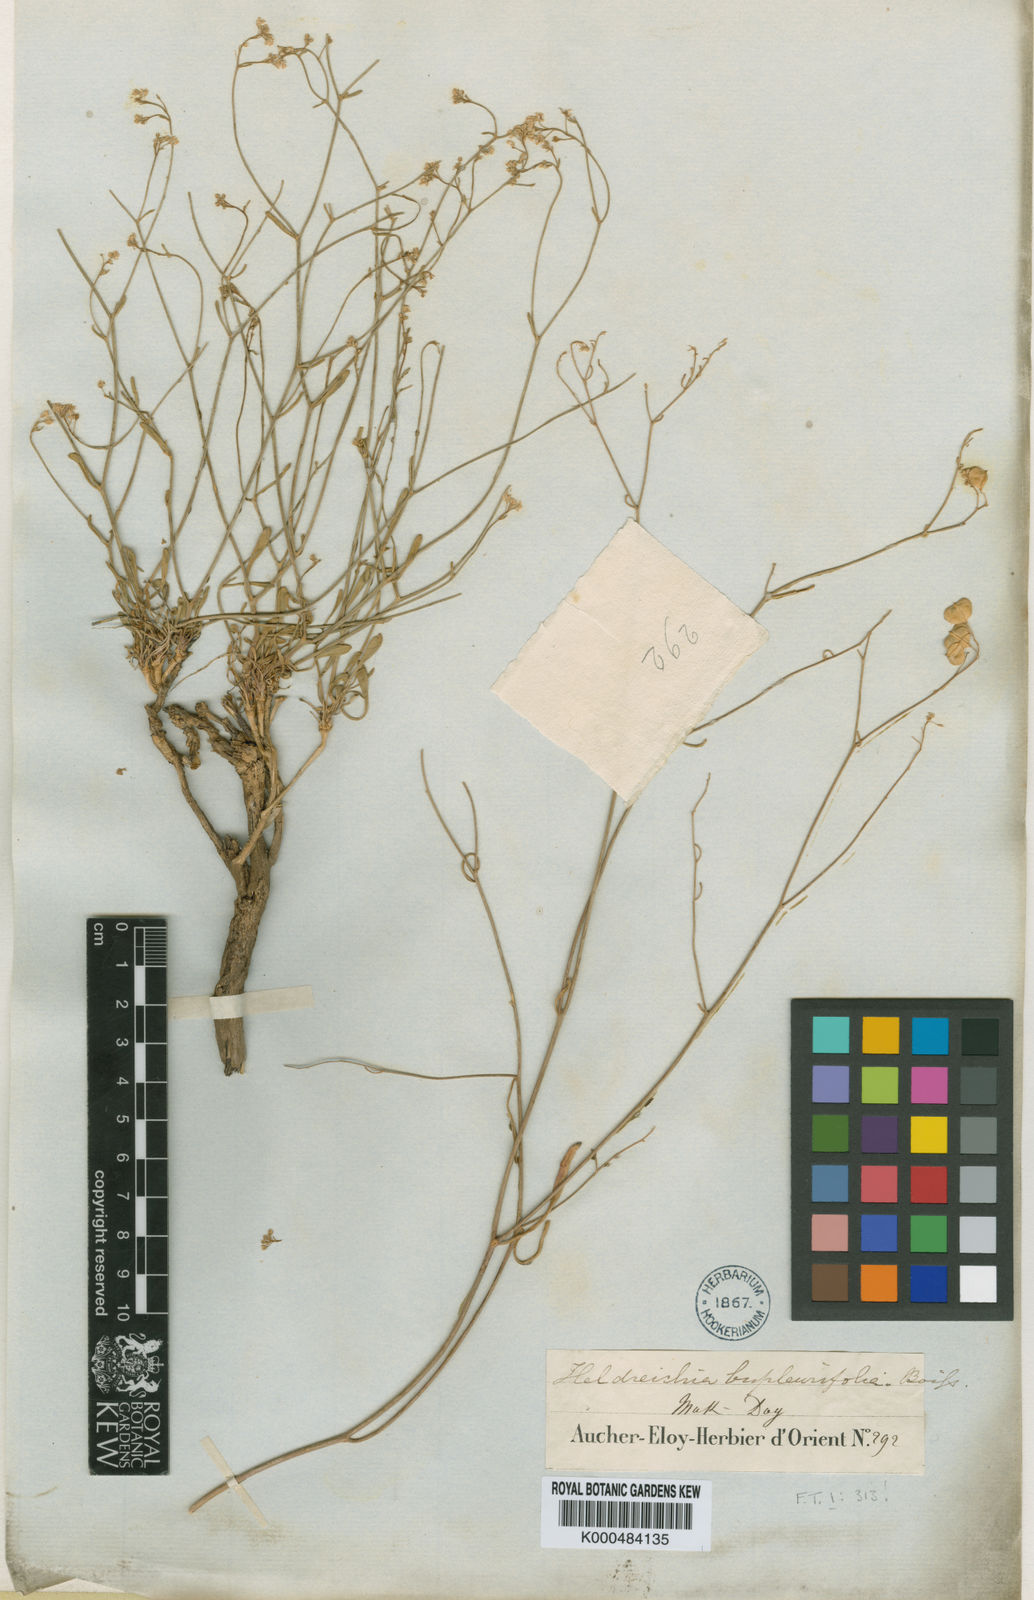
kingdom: Plantae
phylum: Tracheophyta
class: Magnoliopsida
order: Brassicales
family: Brassicaceae
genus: Heldreichia
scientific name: Heldreichia bupleurifolia
